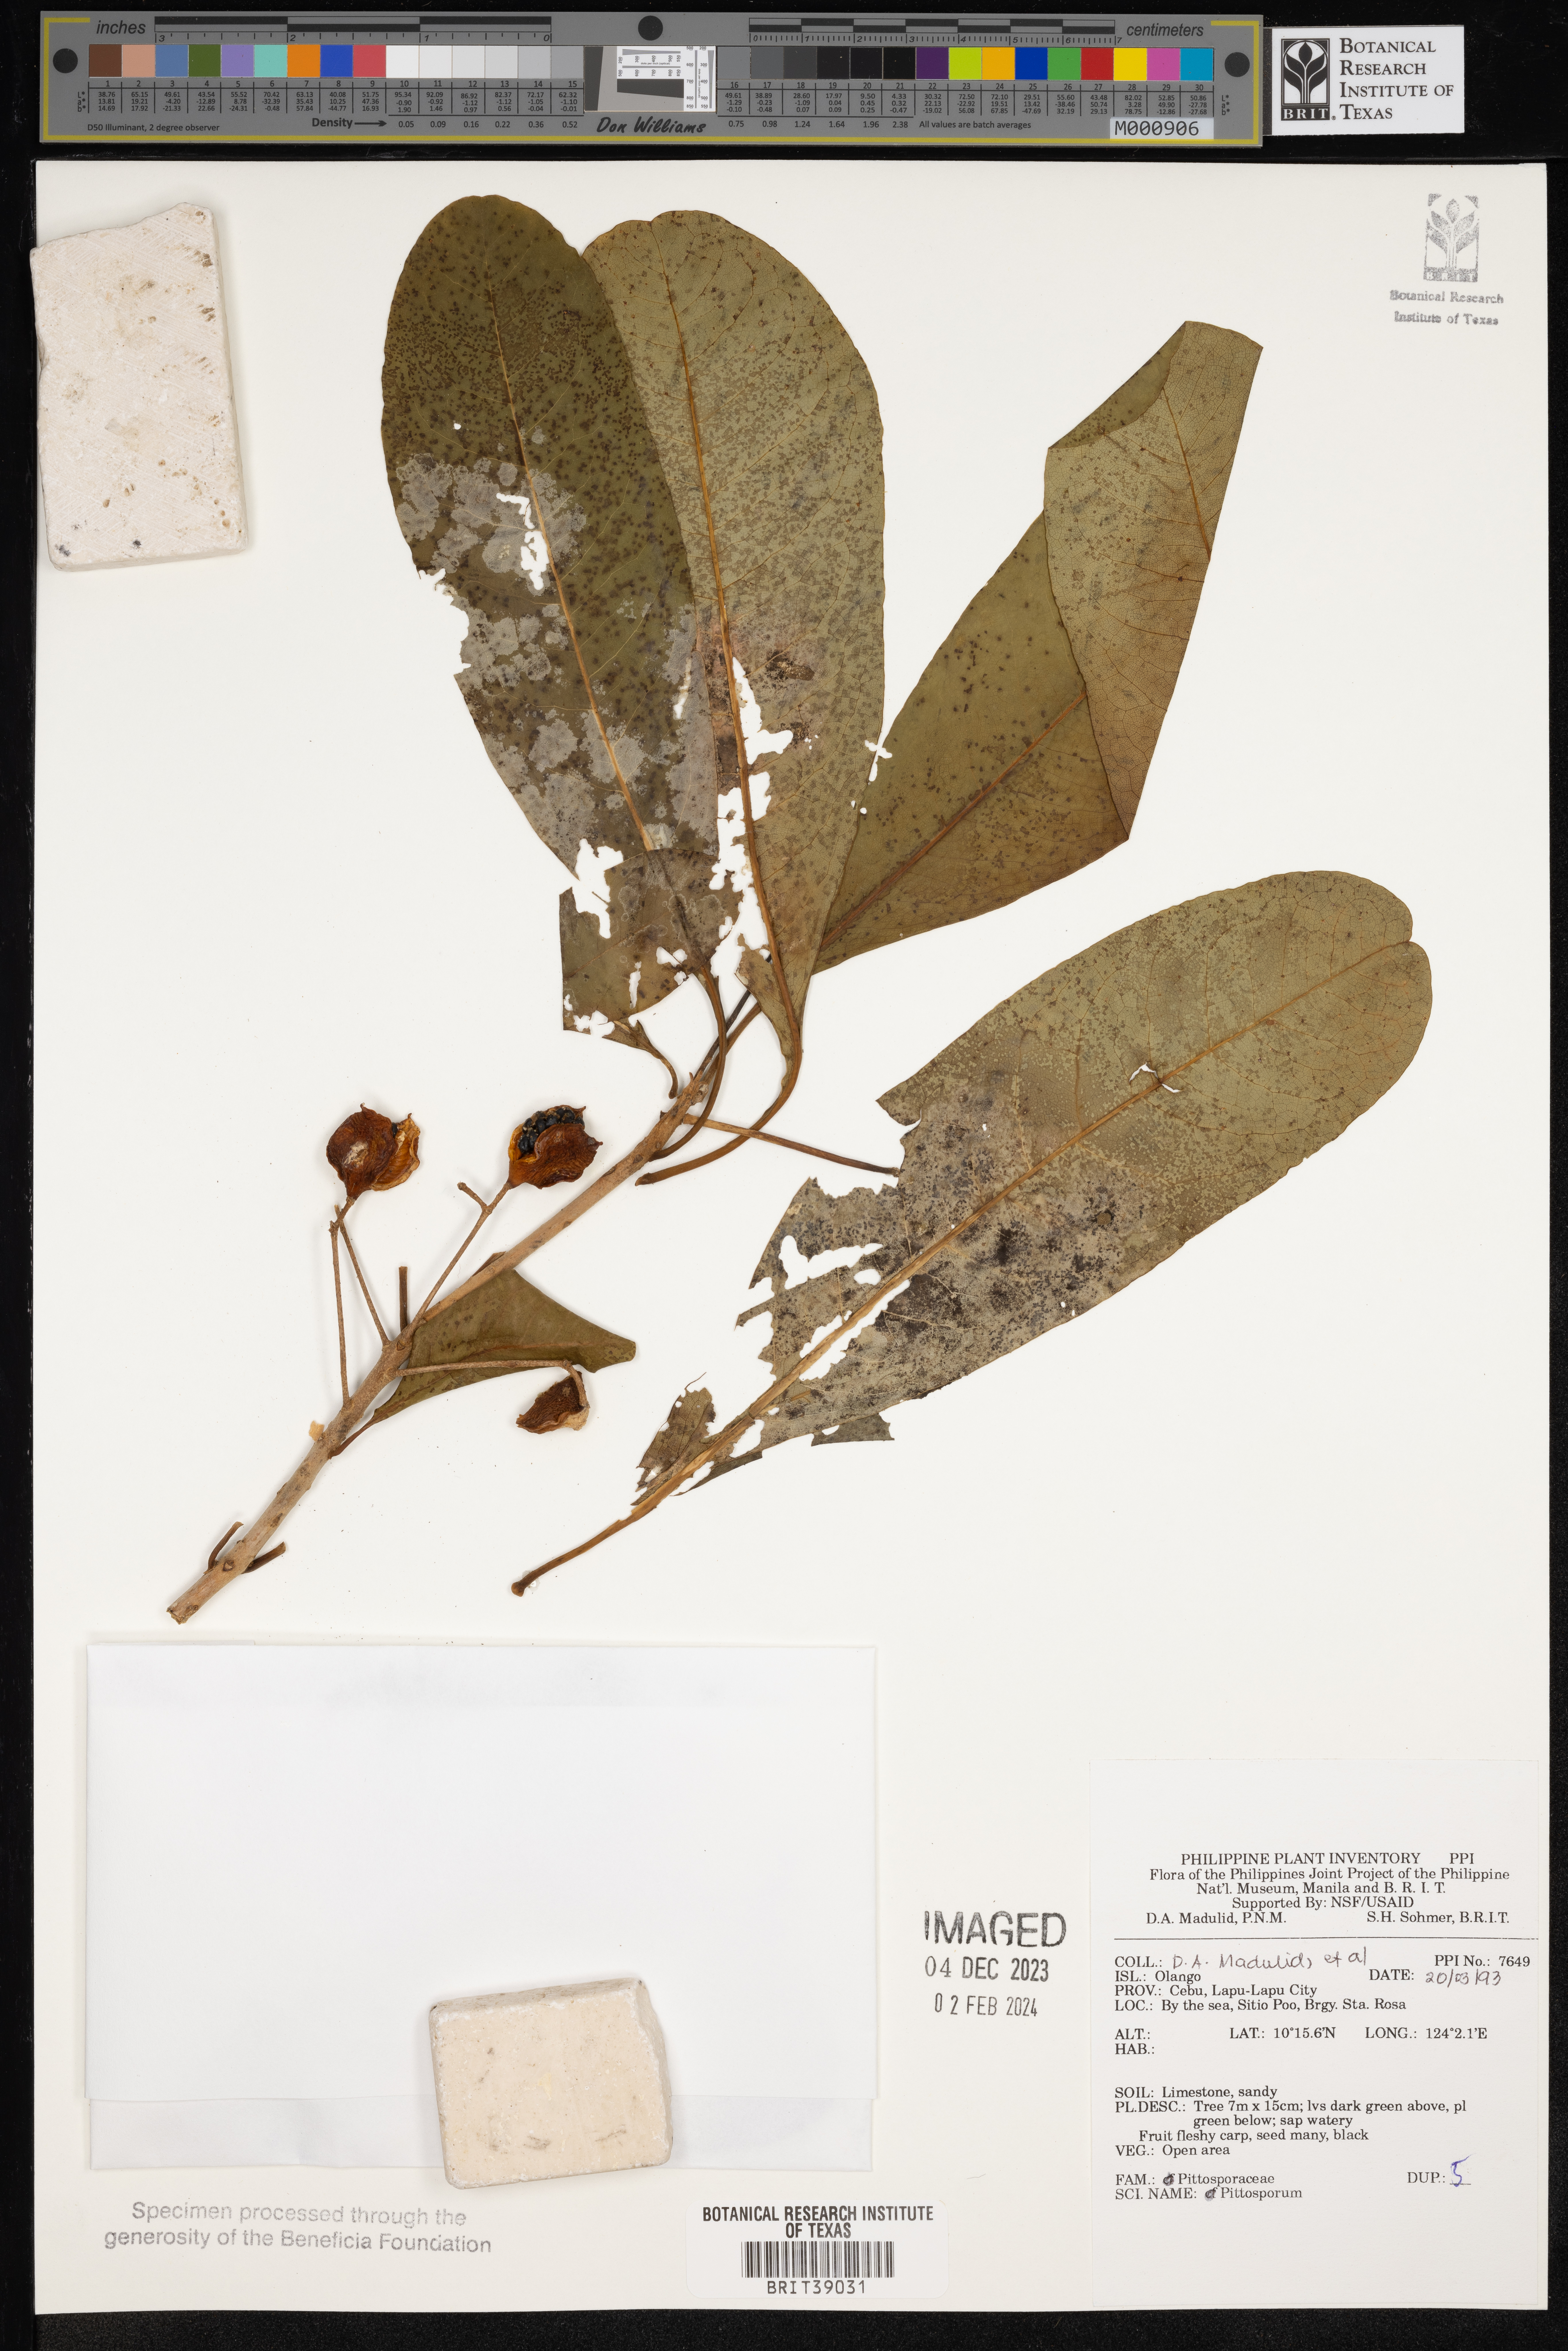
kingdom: Plantae
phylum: Tracheophyta
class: Magnoliopsida
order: Apiales
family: Pittosporaceae
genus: Pittosporum
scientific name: Pittosporum
